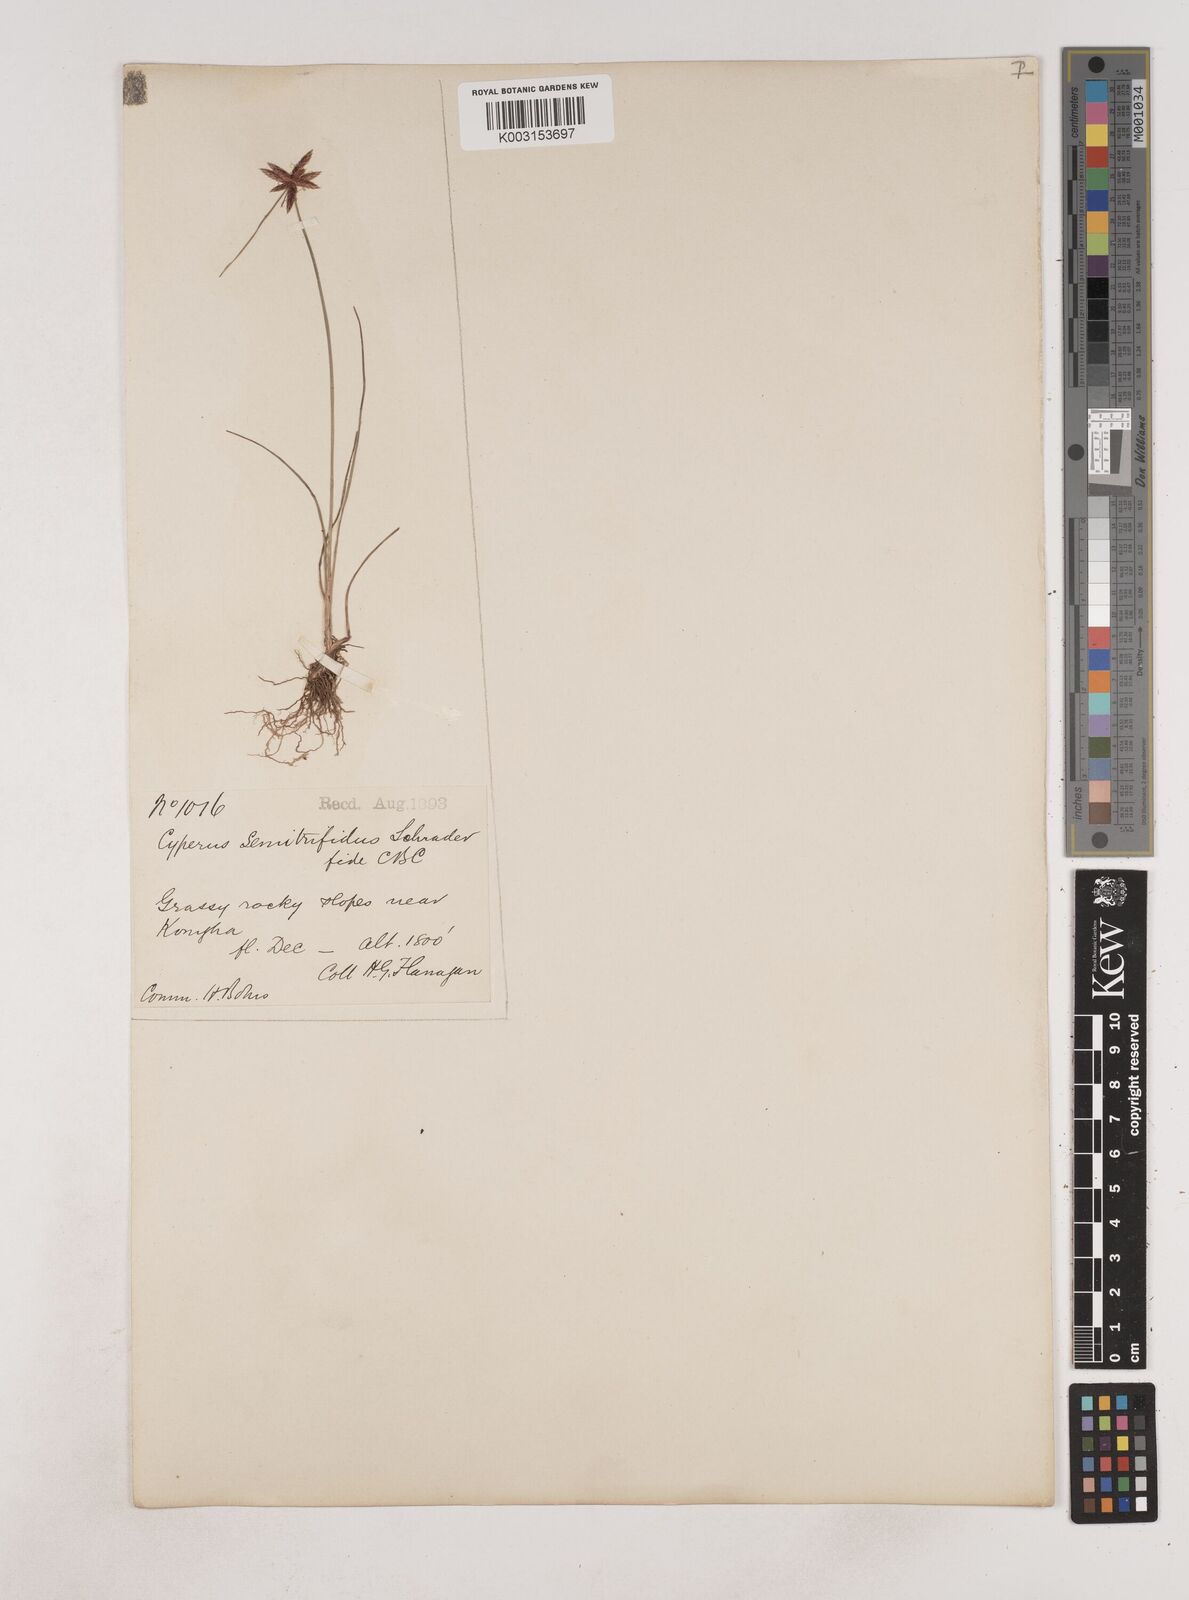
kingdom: Plantae
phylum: Tracheophyta
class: Liliopsida
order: Poales
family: Cyperaceae
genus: Cyperus
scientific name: Cyperus semitrifidus
